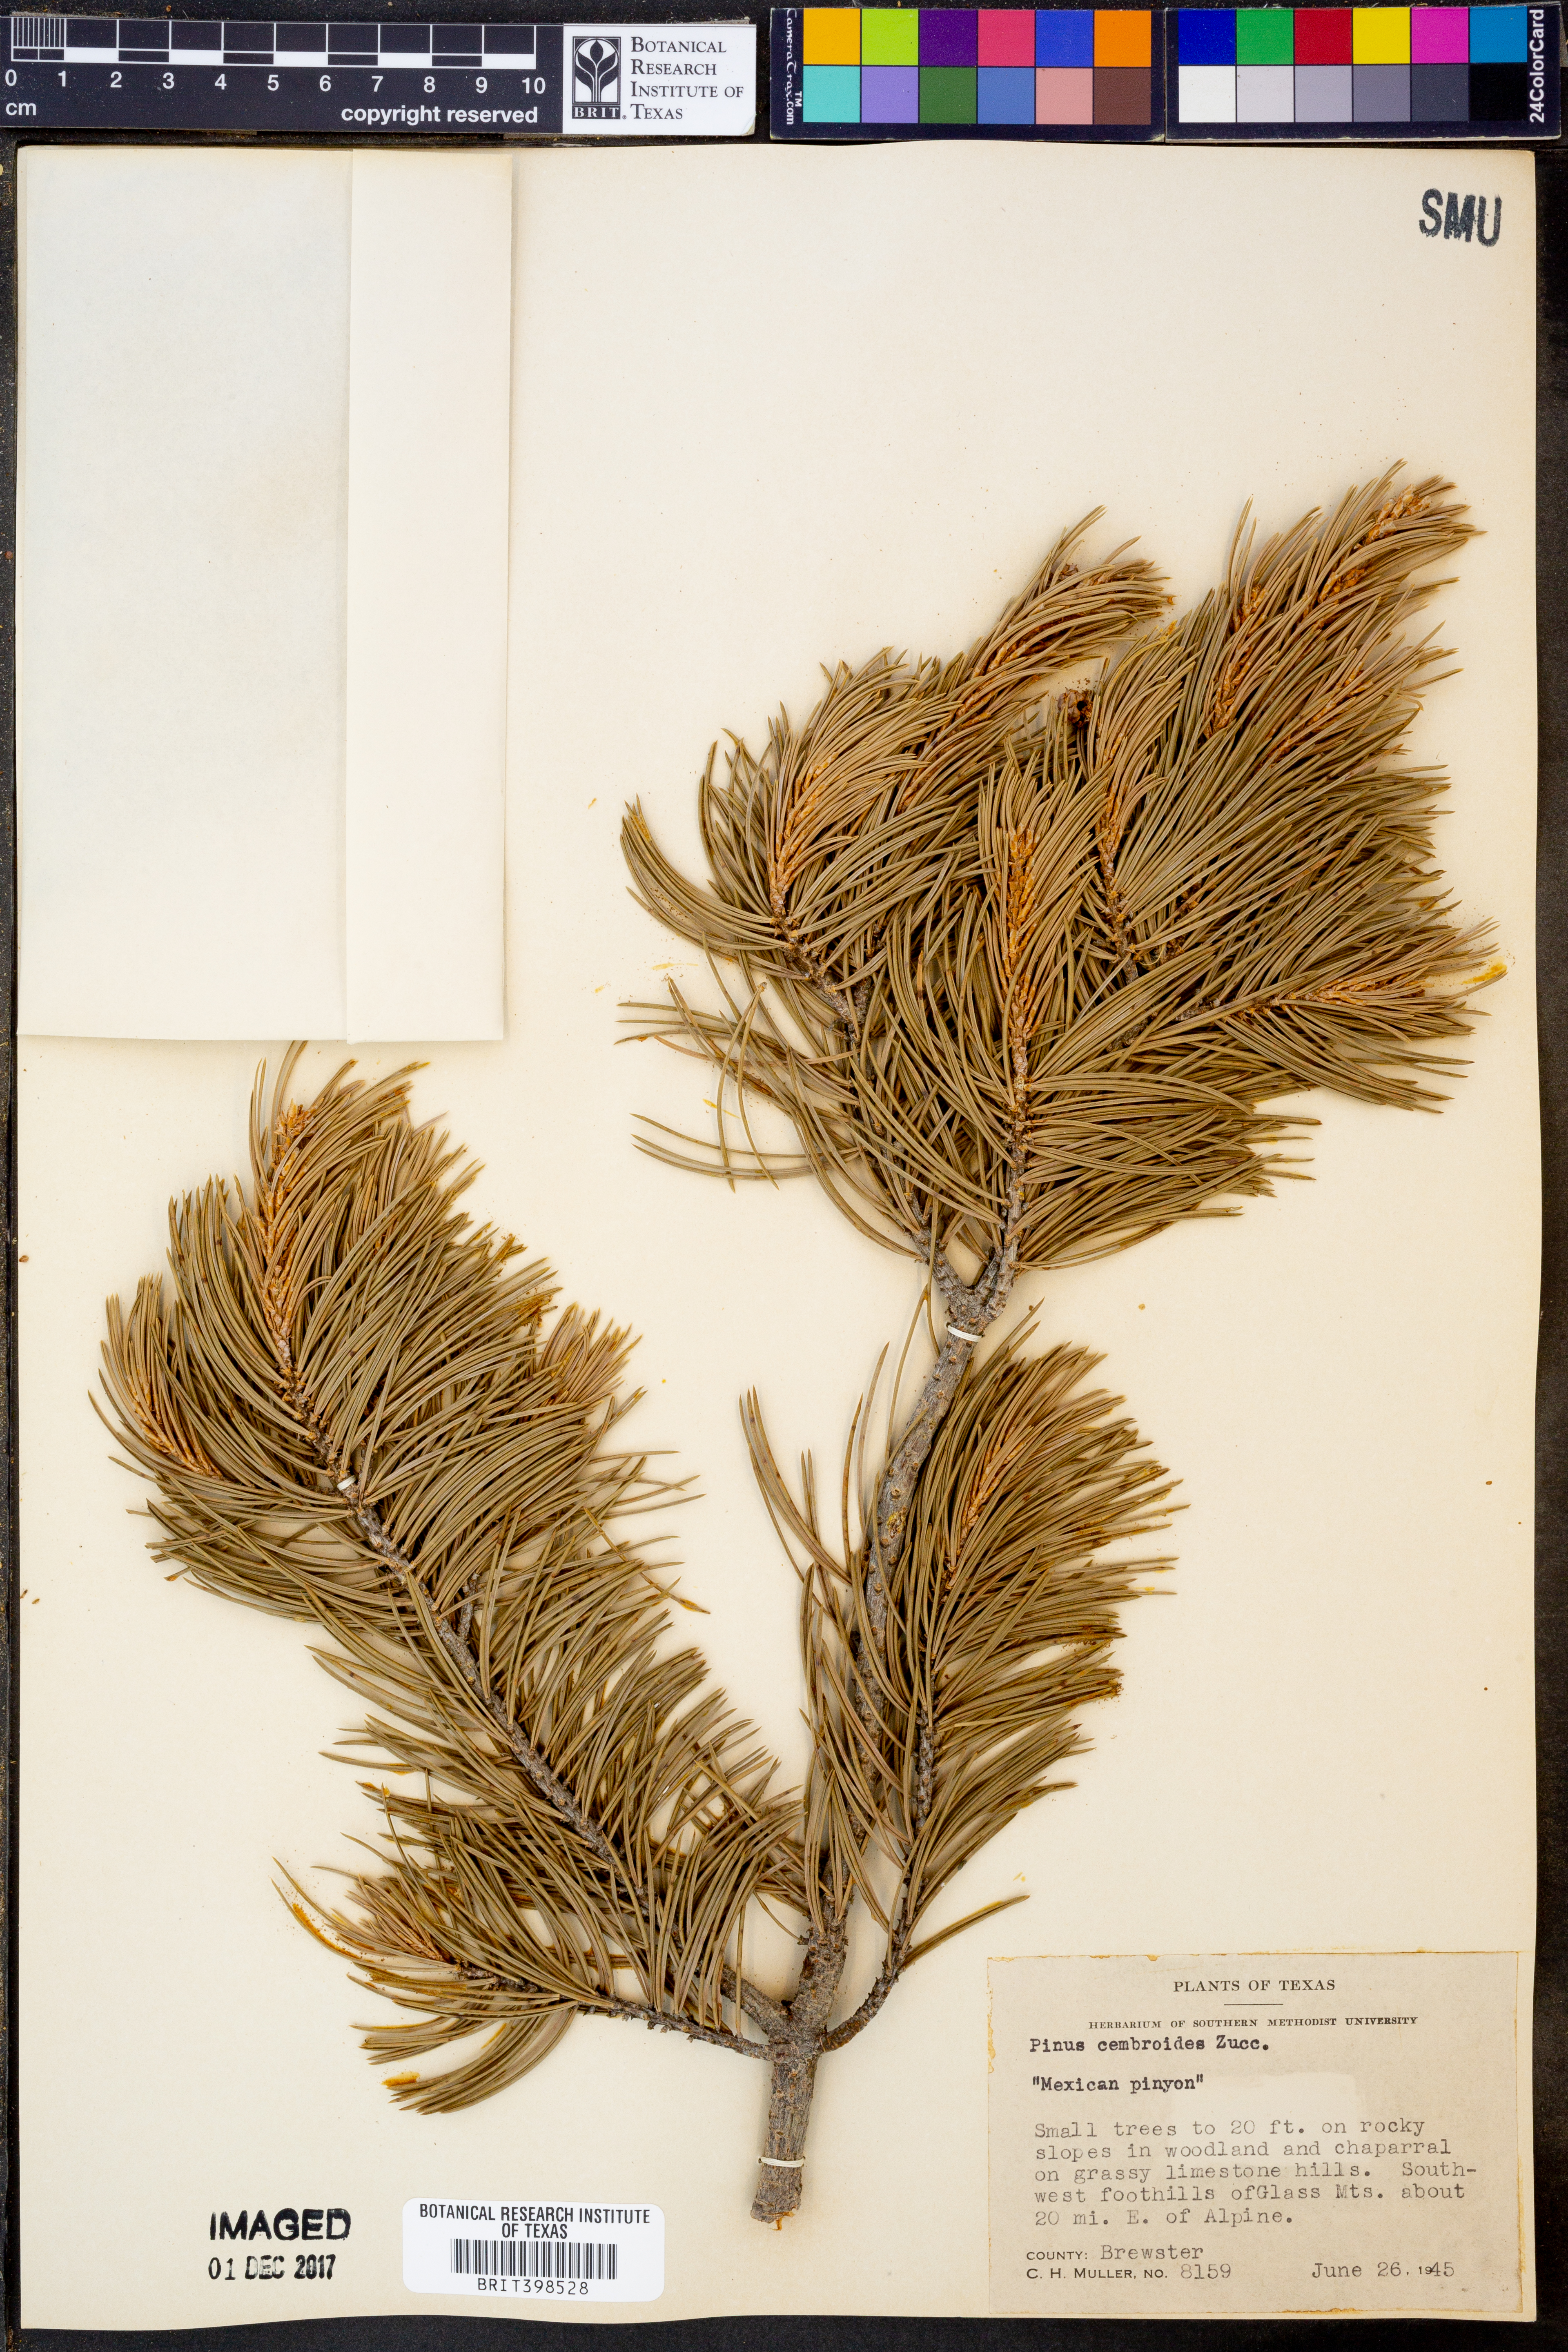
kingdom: Plantae
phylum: Tracheophyta
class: Pinopsida
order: Pinales
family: Pinaceae
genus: Pinus
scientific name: Pinus cembroides
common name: Mexican nut pine
